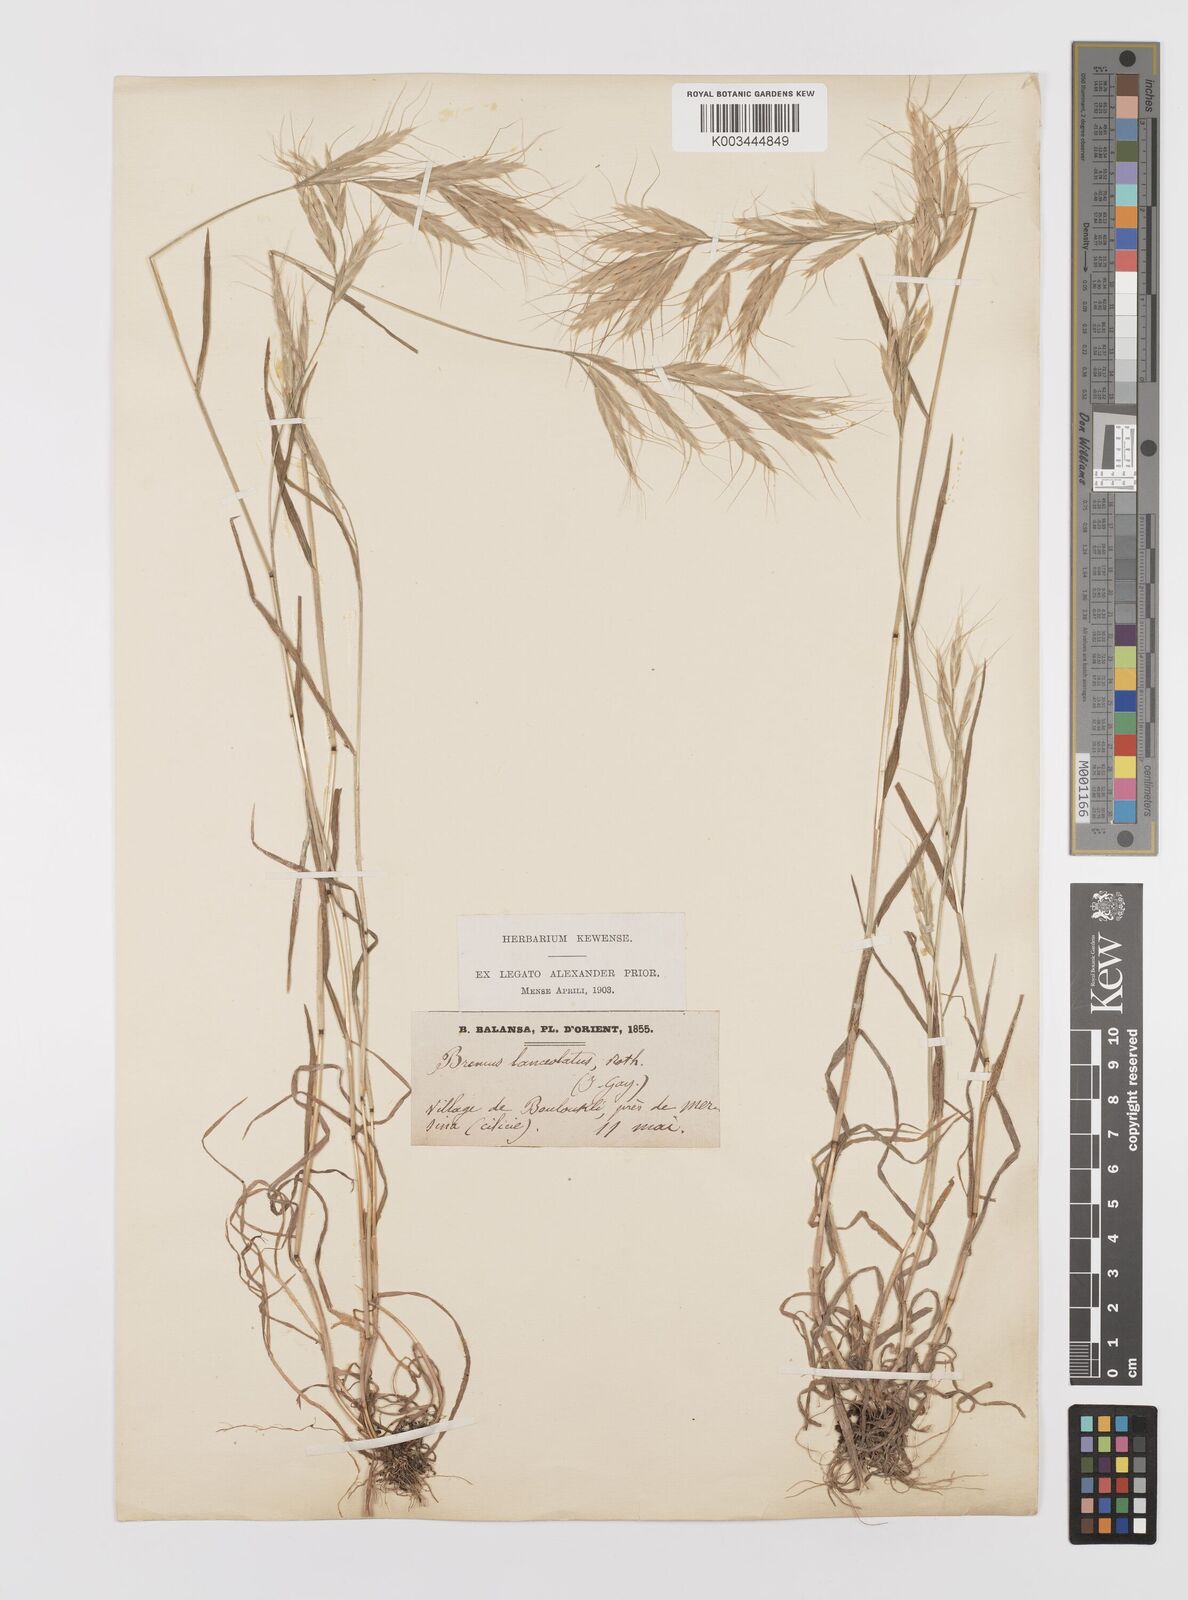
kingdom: Plantae
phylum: Tracheophyta
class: Liliopsida
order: Poales
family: Poaceae
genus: Bromus
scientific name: Bromus lanceolatus
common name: Mediterranean brome
